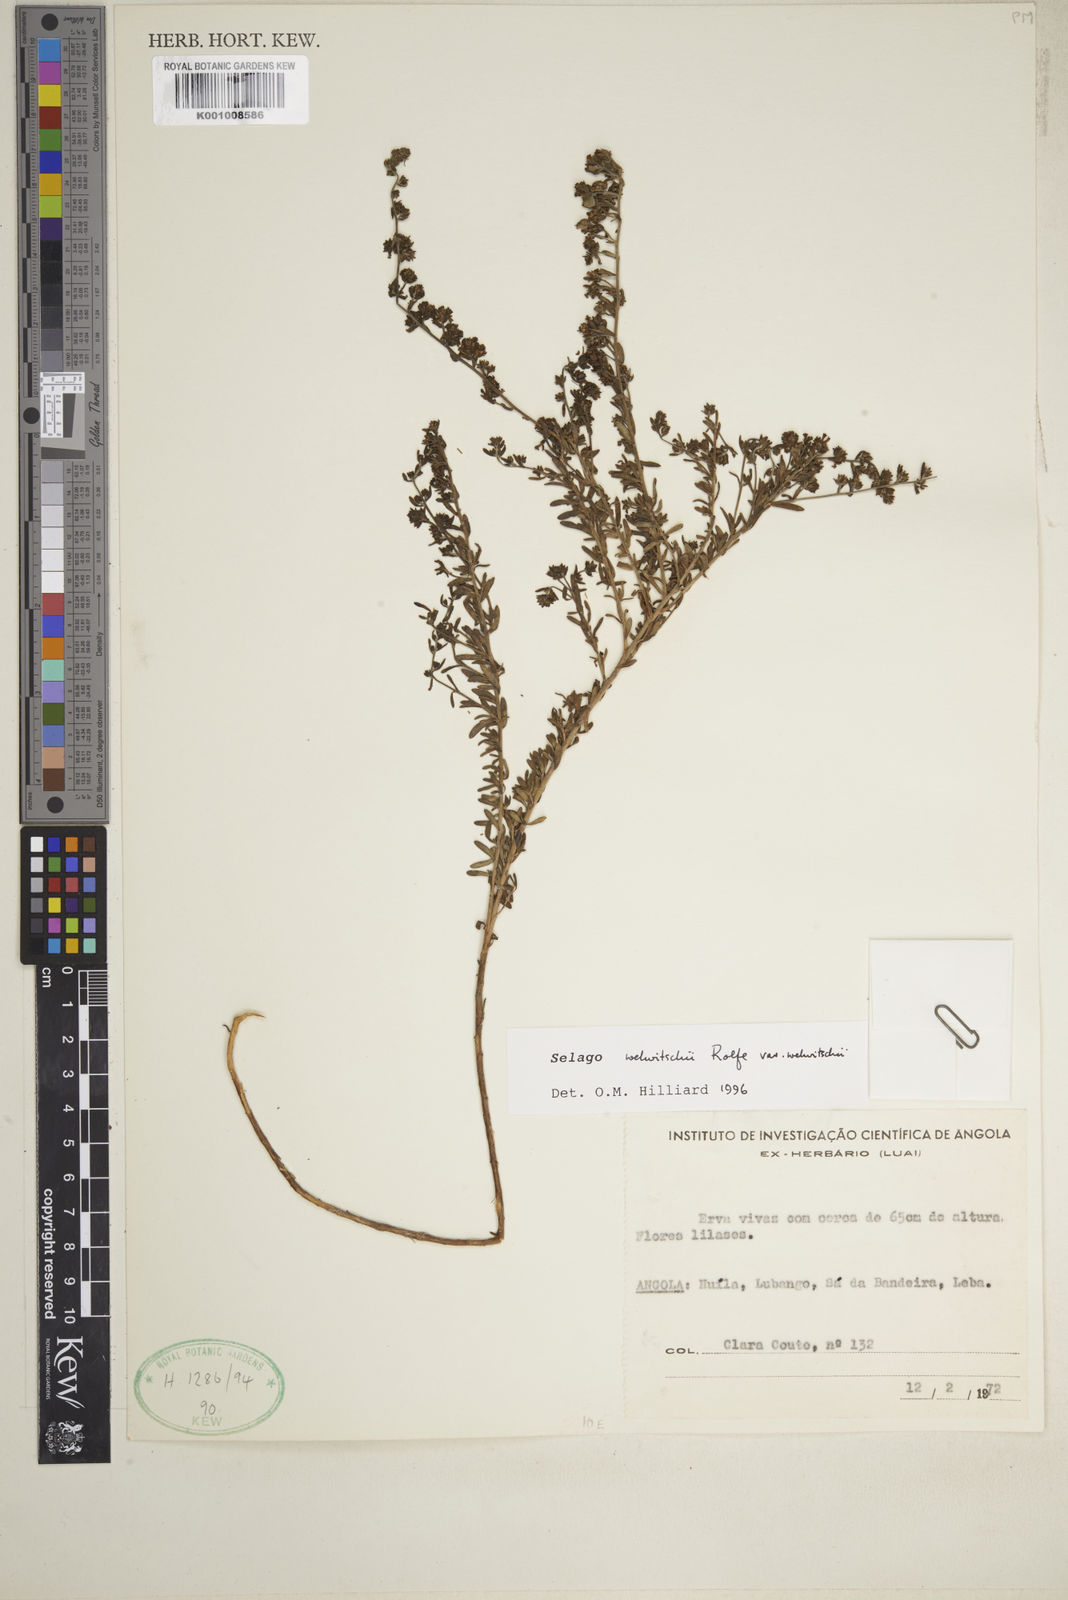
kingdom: Plantae
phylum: Tracheophyta
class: Magnoliopsida
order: Lamiales
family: Scrophulariaceae
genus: Selago
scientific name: Selago welwitschii
